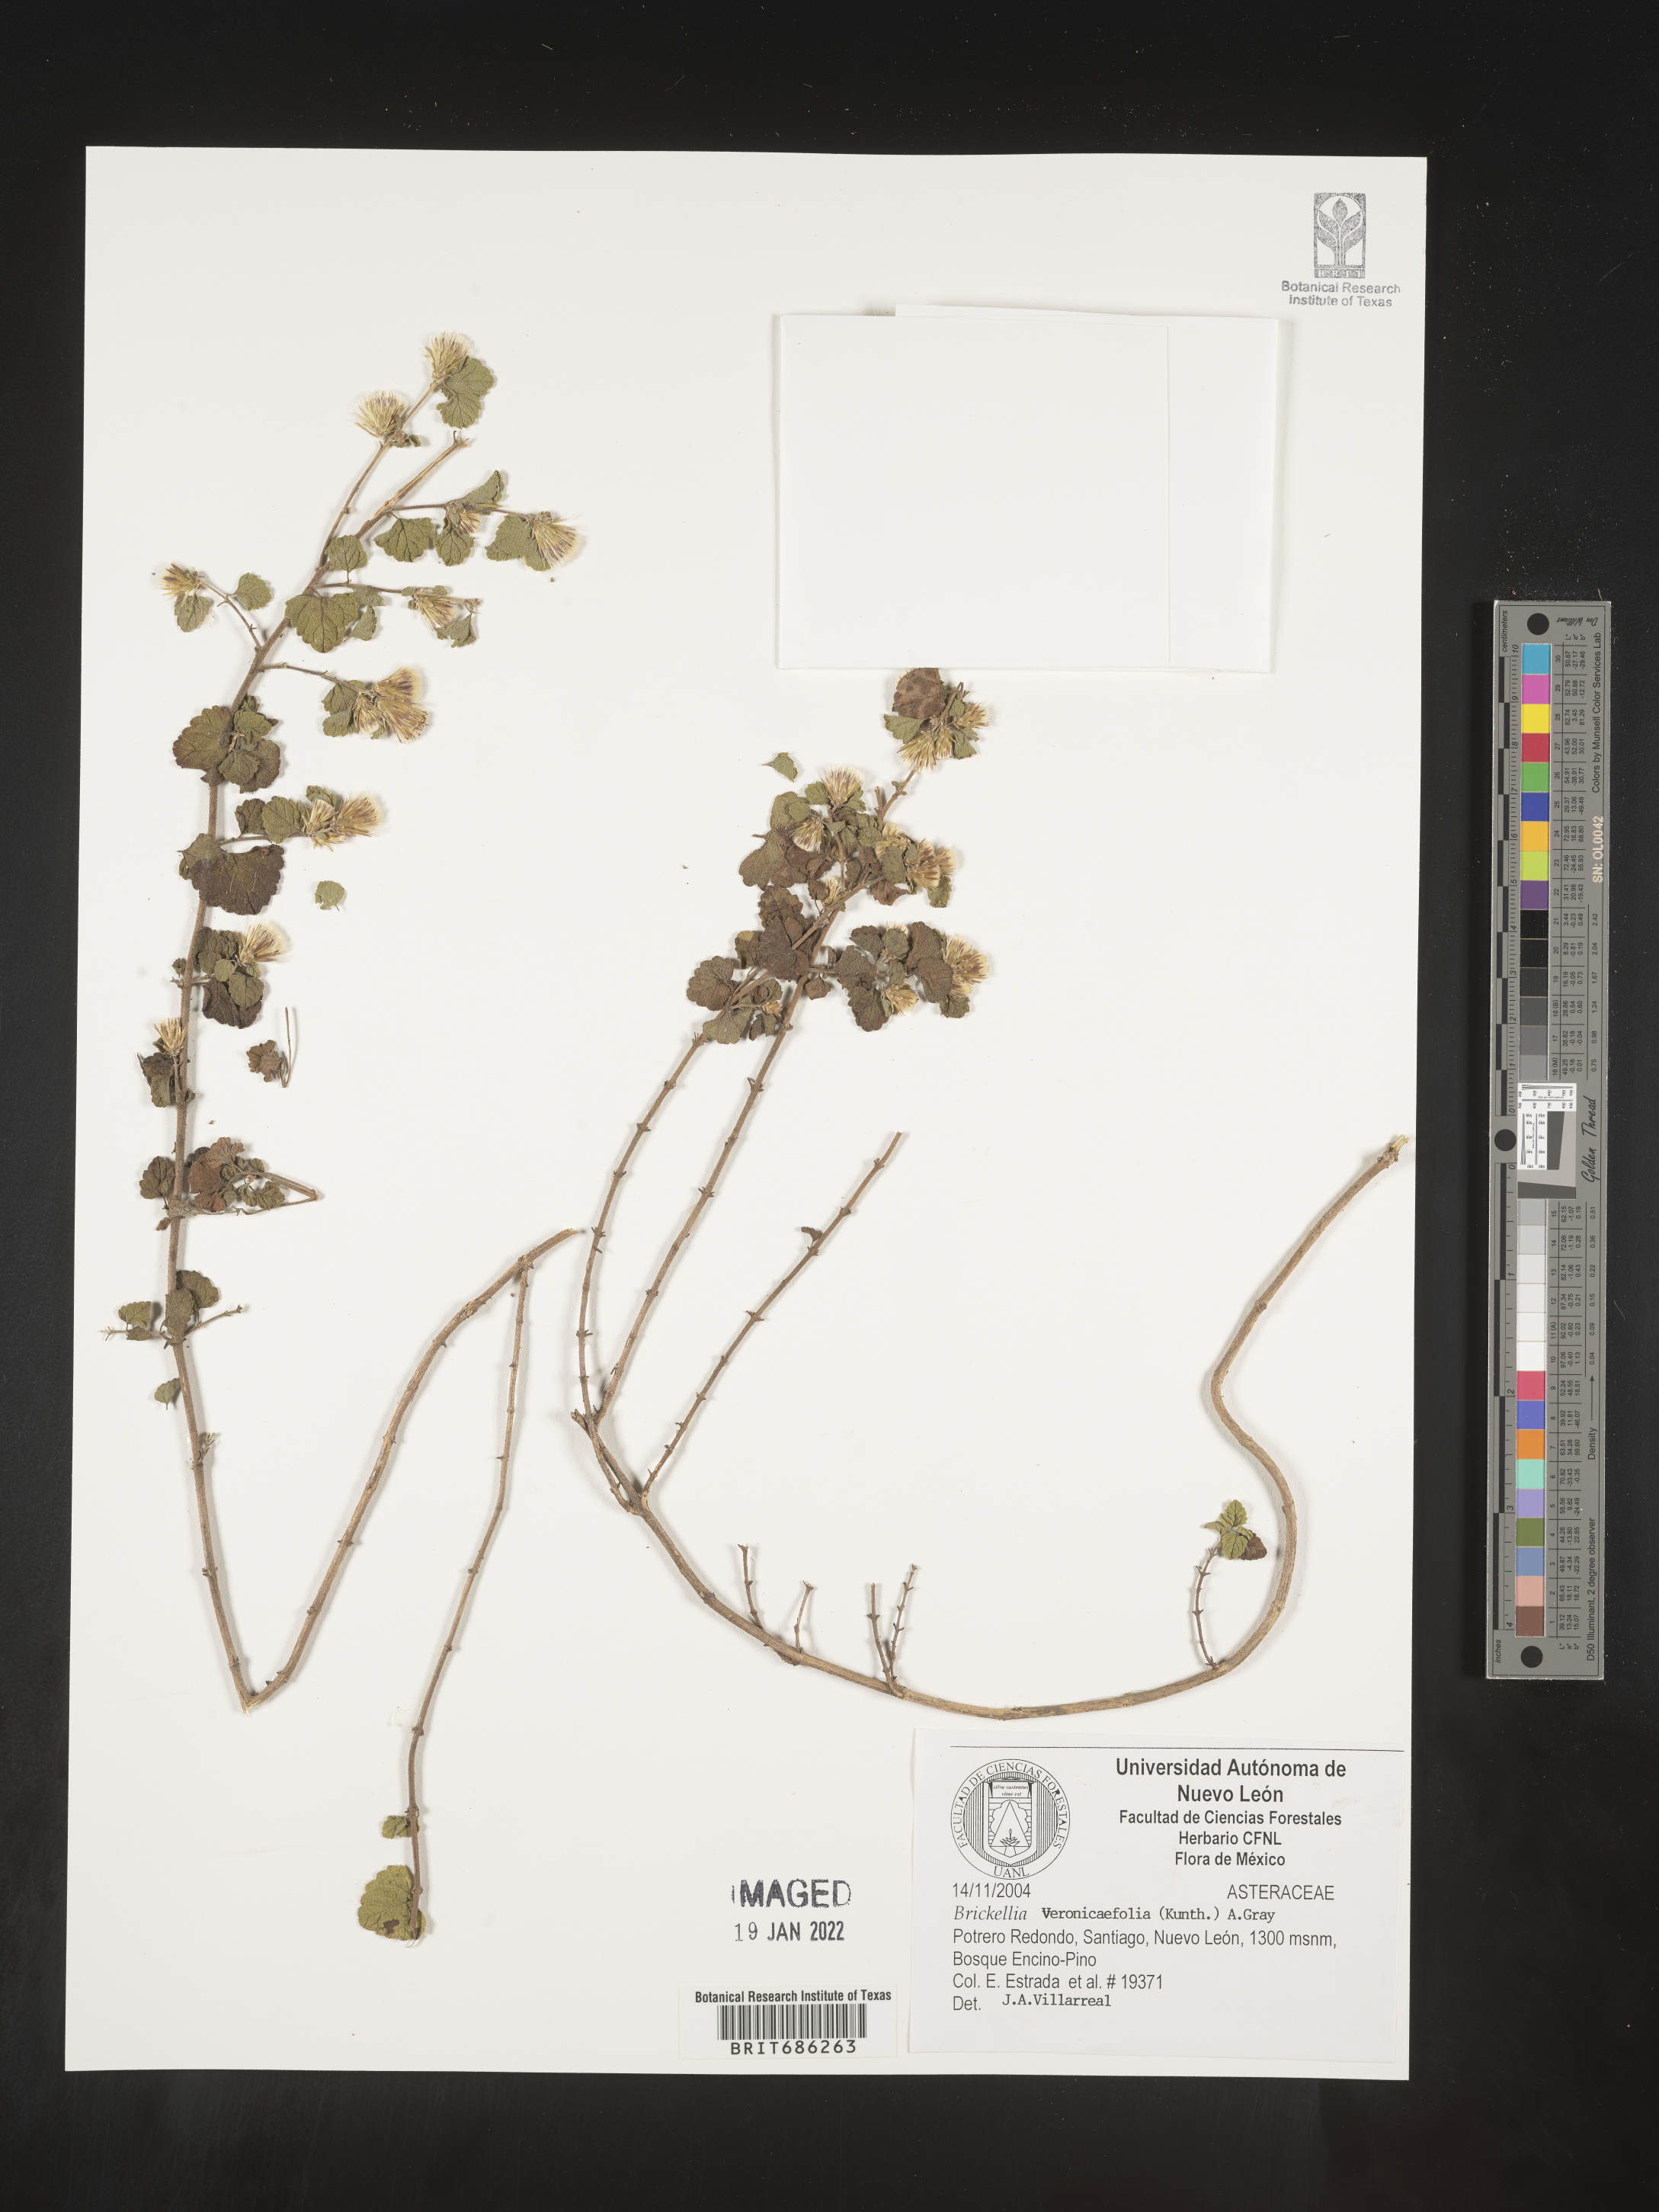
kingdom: Plantae
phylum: Tracheophyta
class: Magnoliopsida
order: Asterales
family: Asteraceae
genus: Brickellia
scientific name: Brickellia veronicifolia
